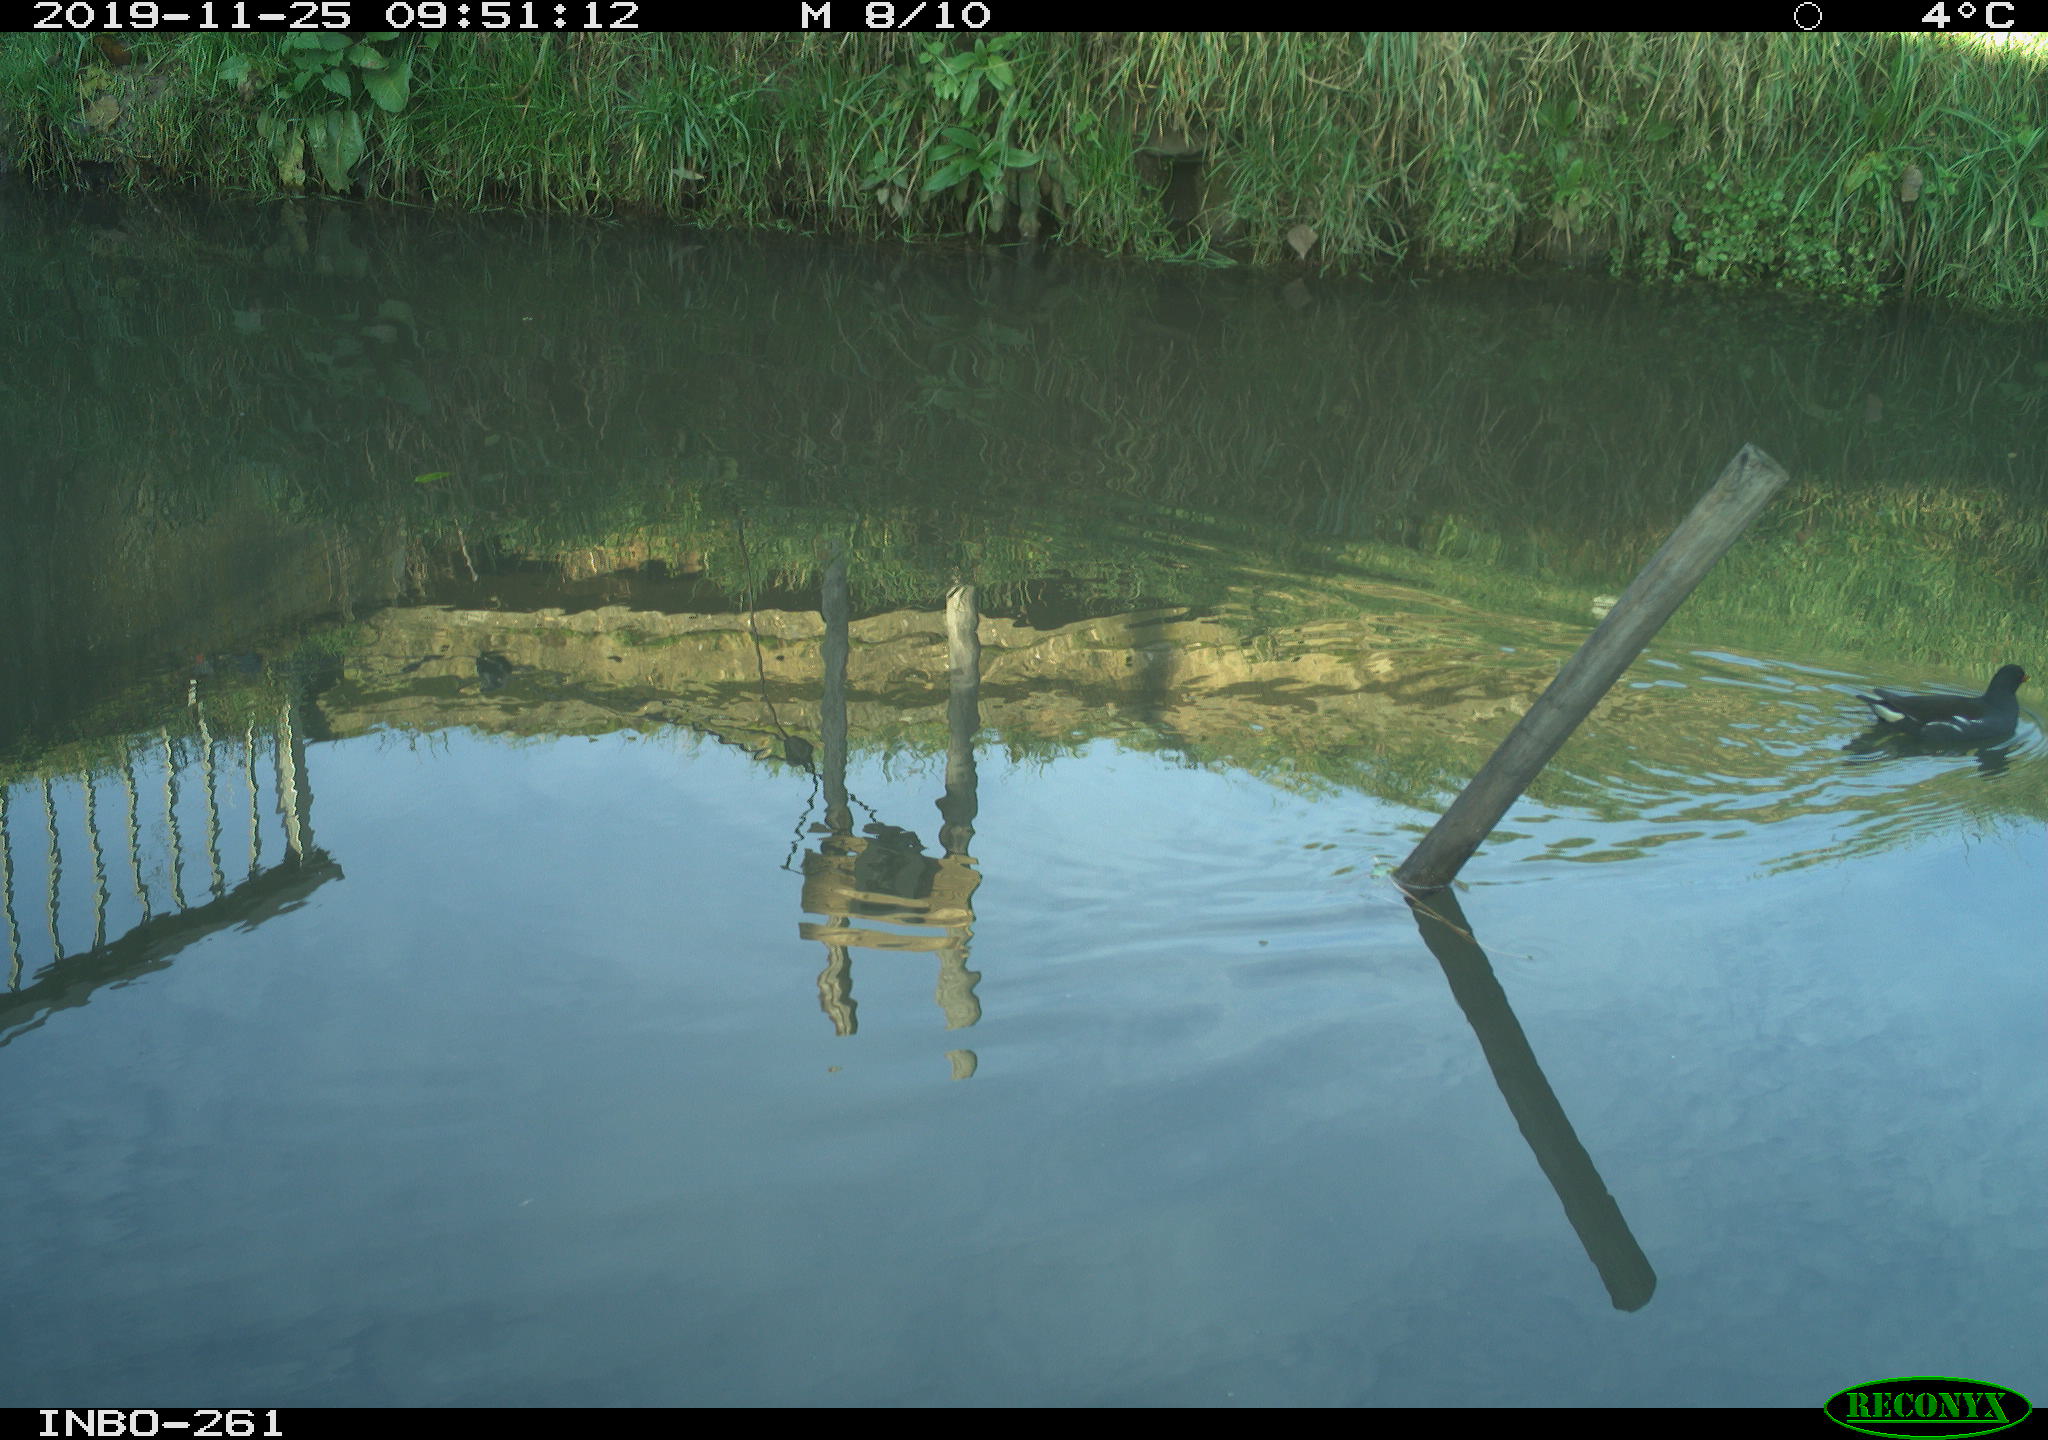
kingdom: Animalia
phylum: Chordata
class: Aves
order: Gruiformes
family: Rallidae
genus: Gallinula
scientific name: Gallinula chloropus
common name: Common moorhen
